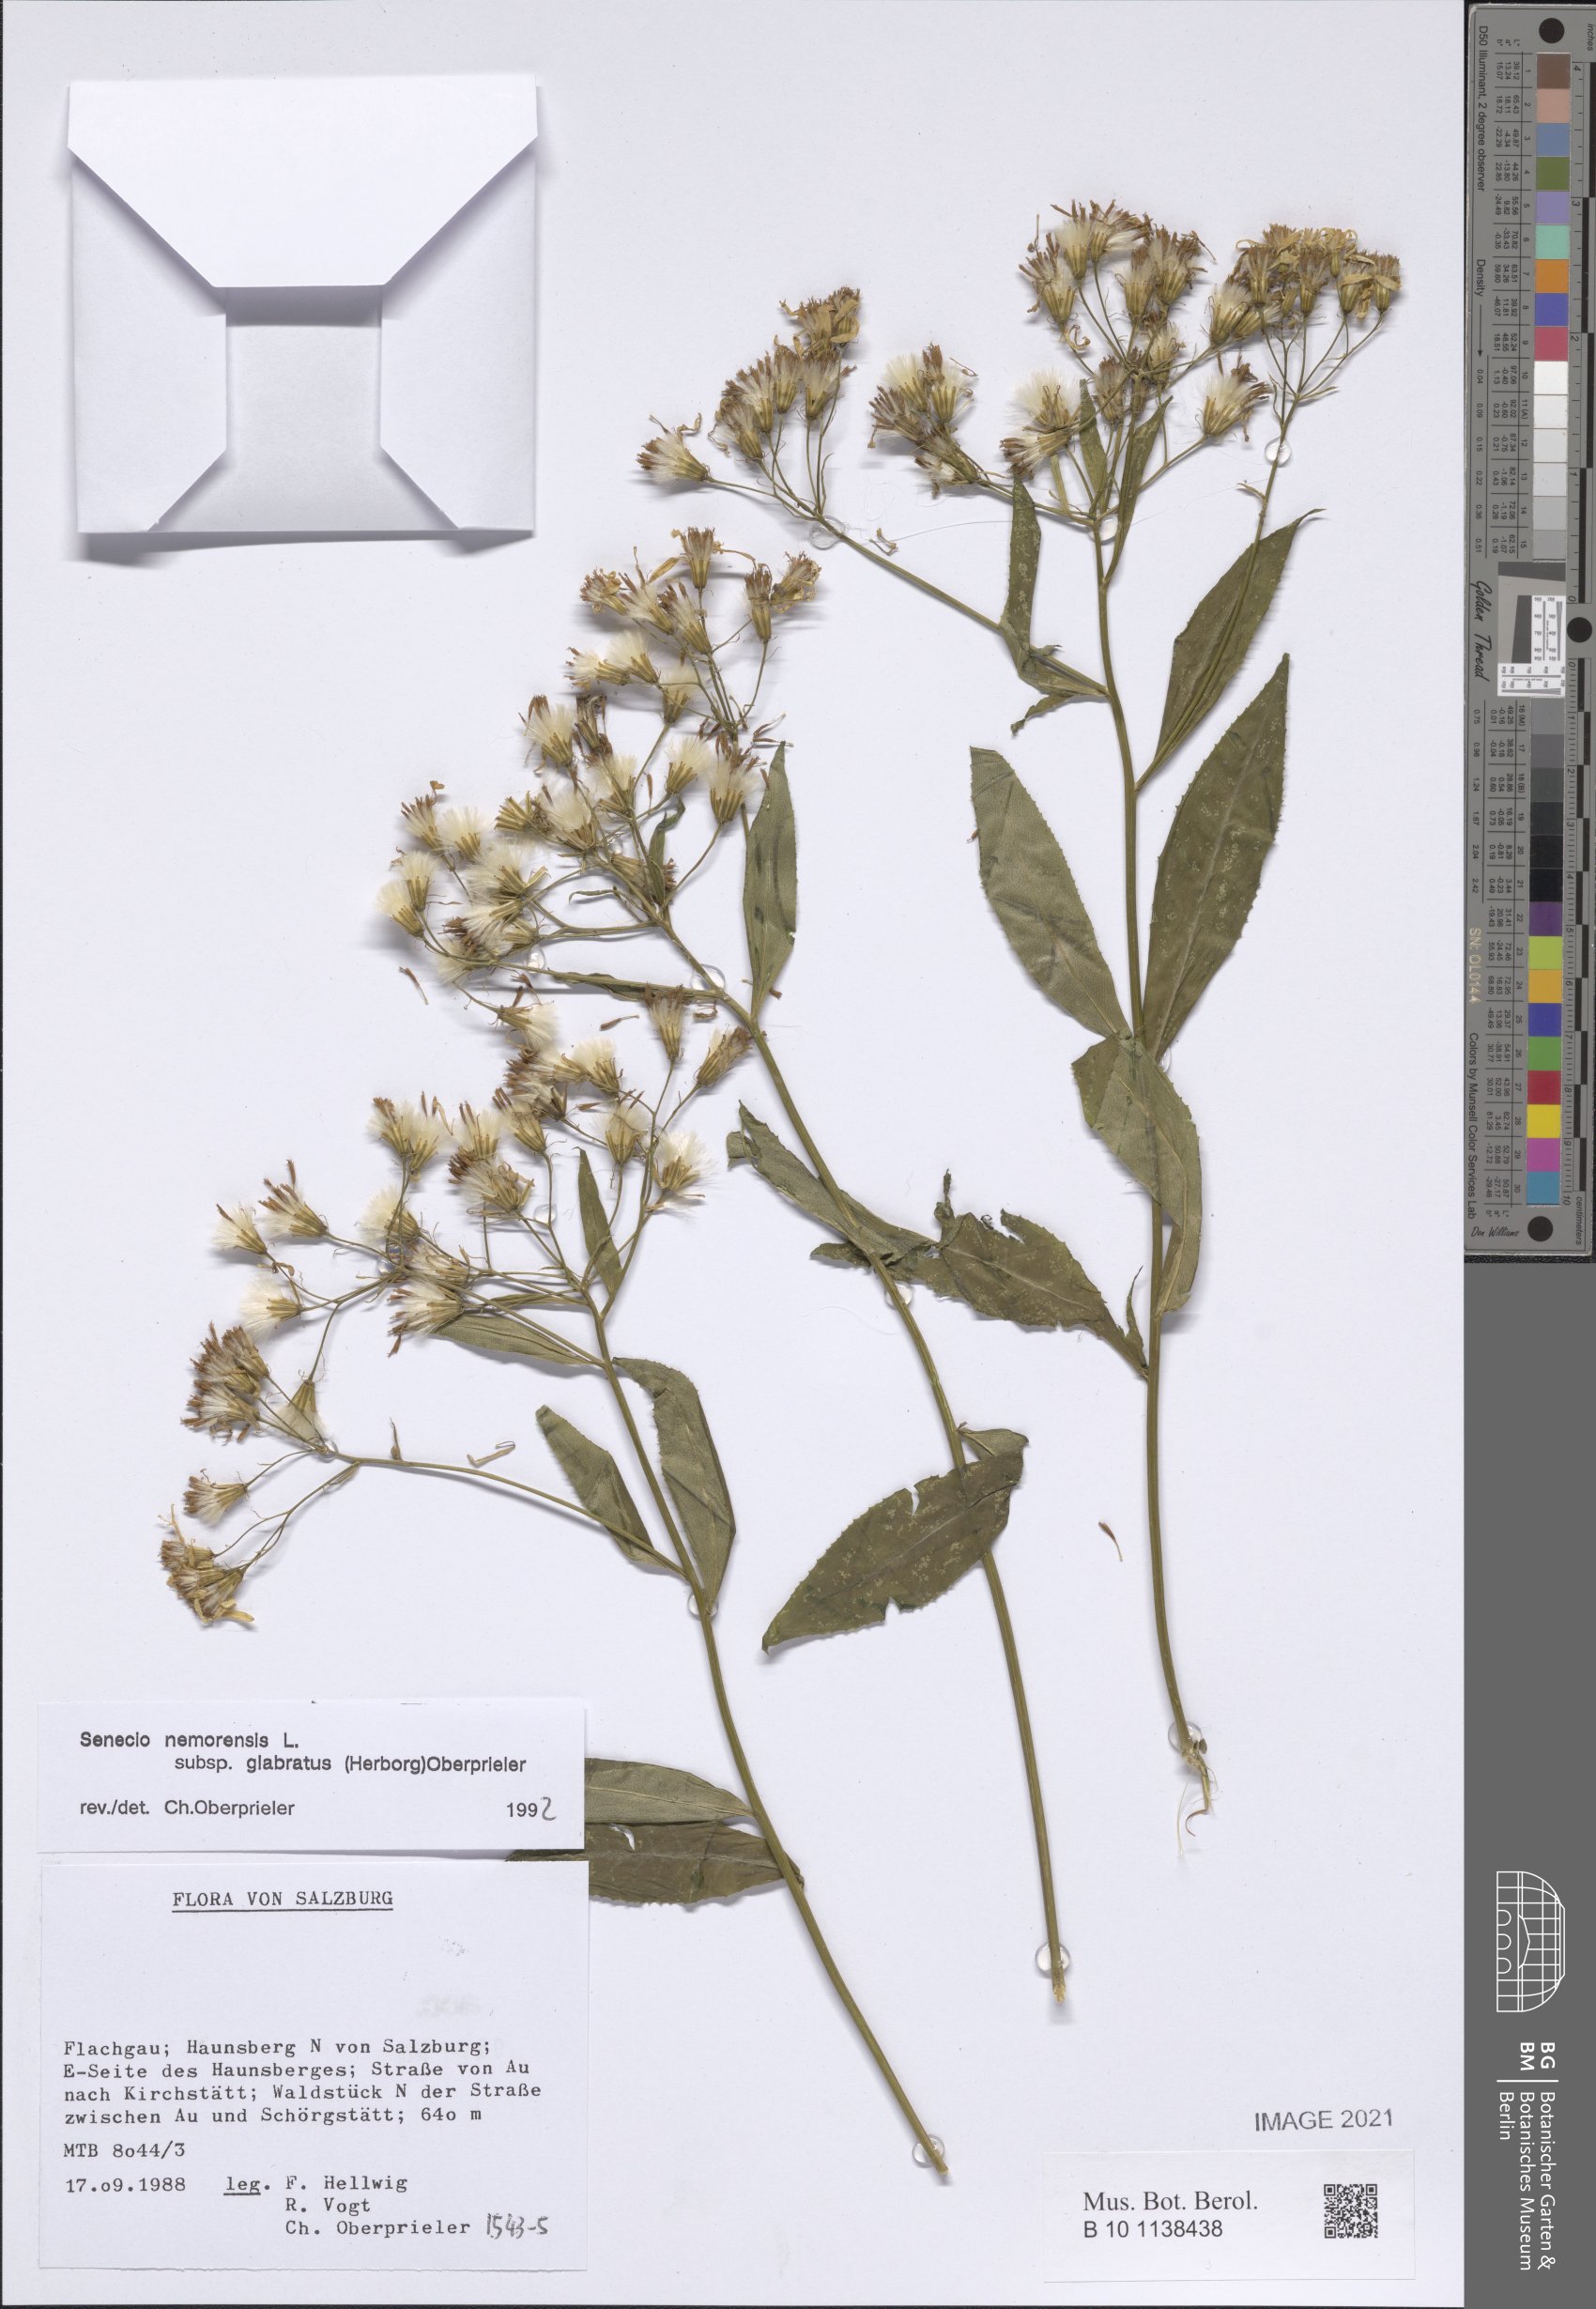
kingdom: Plantae
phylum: Tracheophyta
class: Magnoliopsida
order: Asterales
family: Asteraceae
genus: Senecio
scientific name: Senecio germanicus
